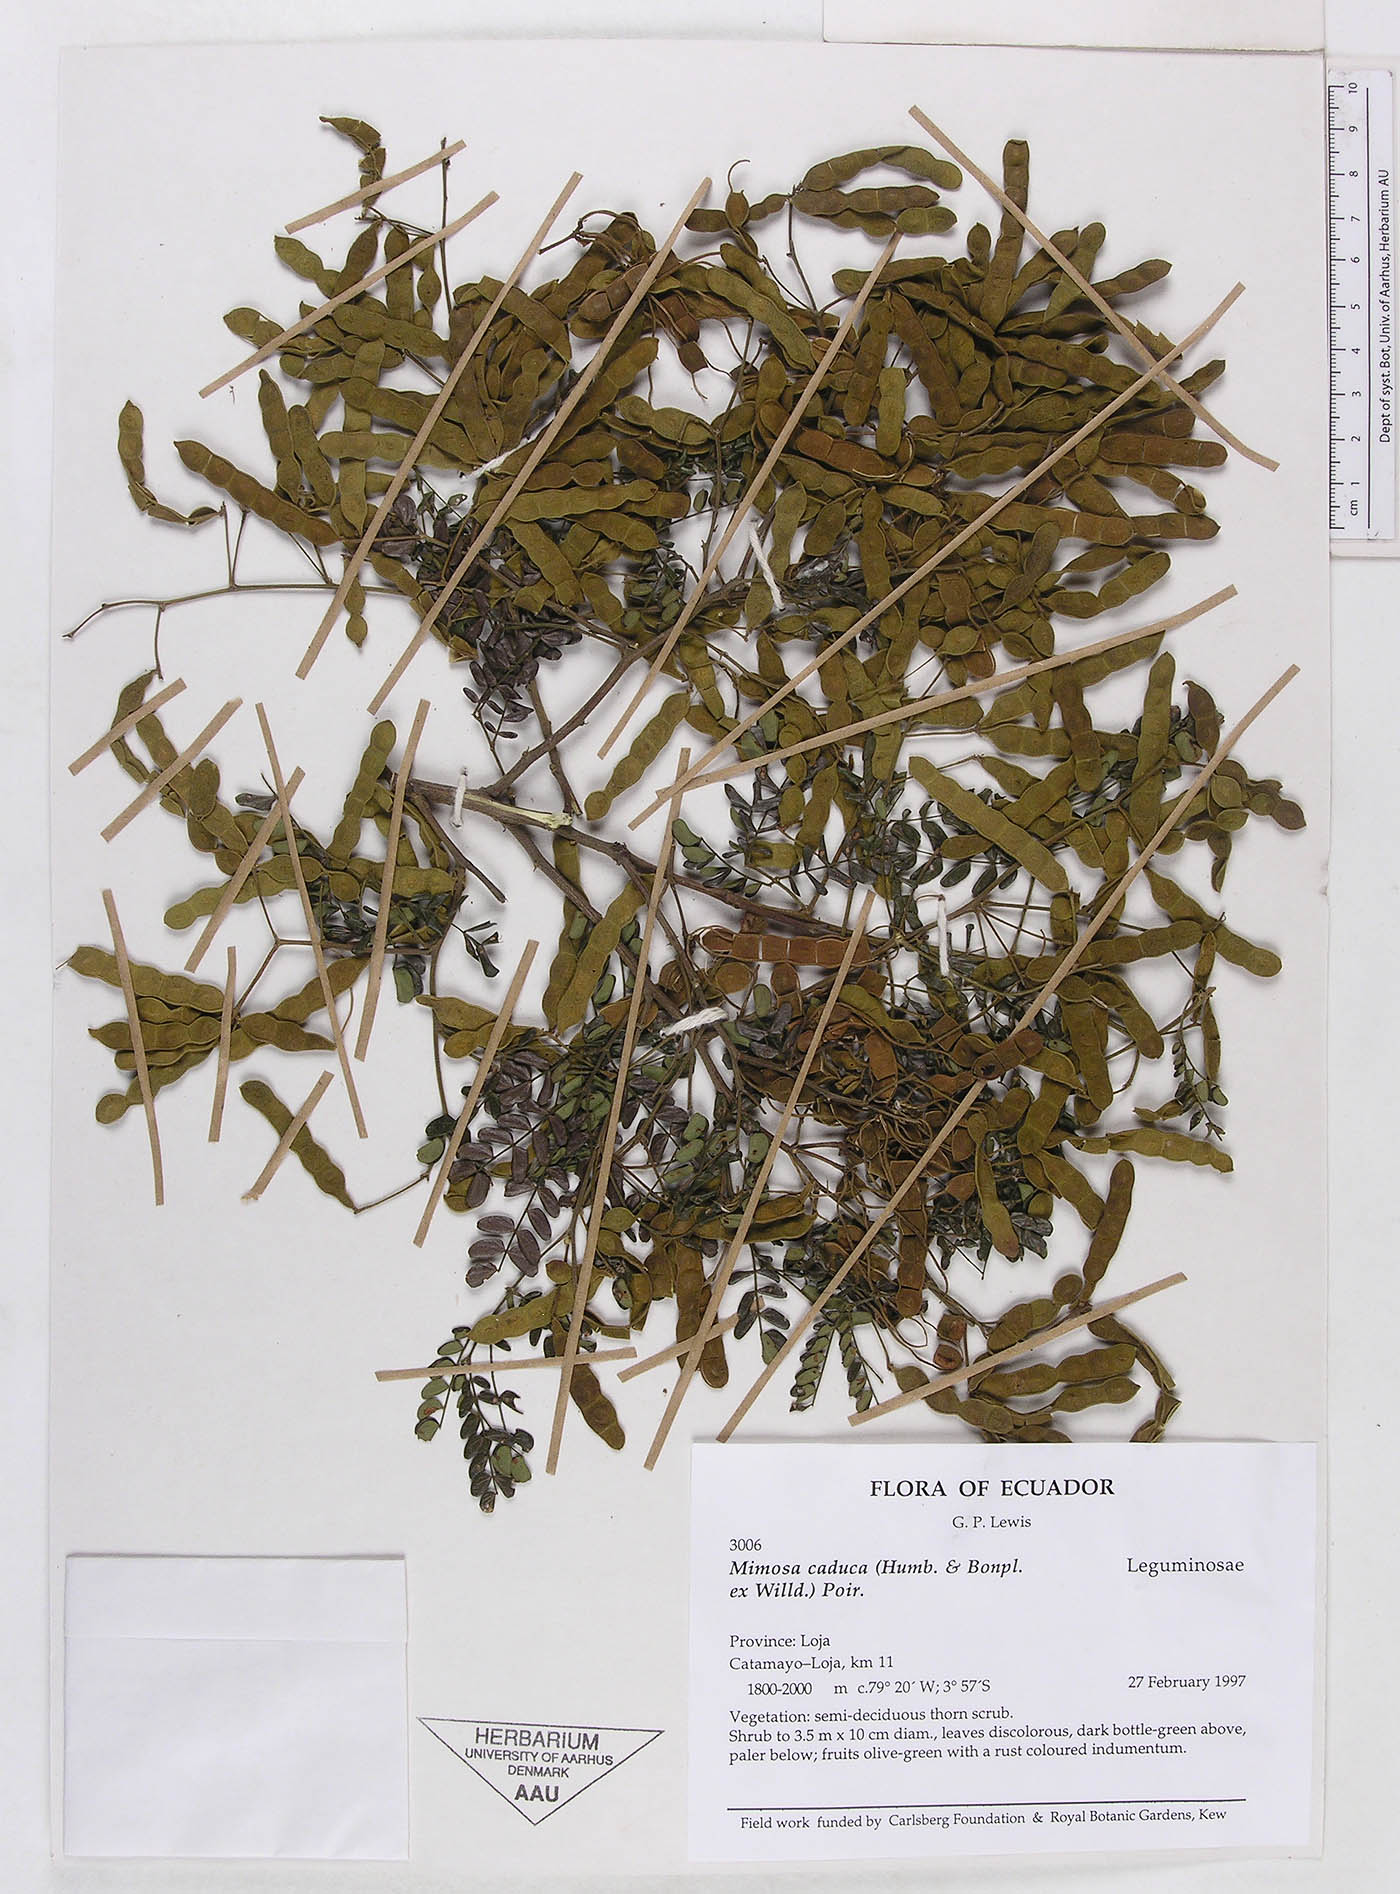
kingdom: Plantae
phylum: Tracheophyta
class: Magnoliopsida
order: Fabales
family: Fabaceae
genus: Mimosa
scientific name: Mimosa caduca
